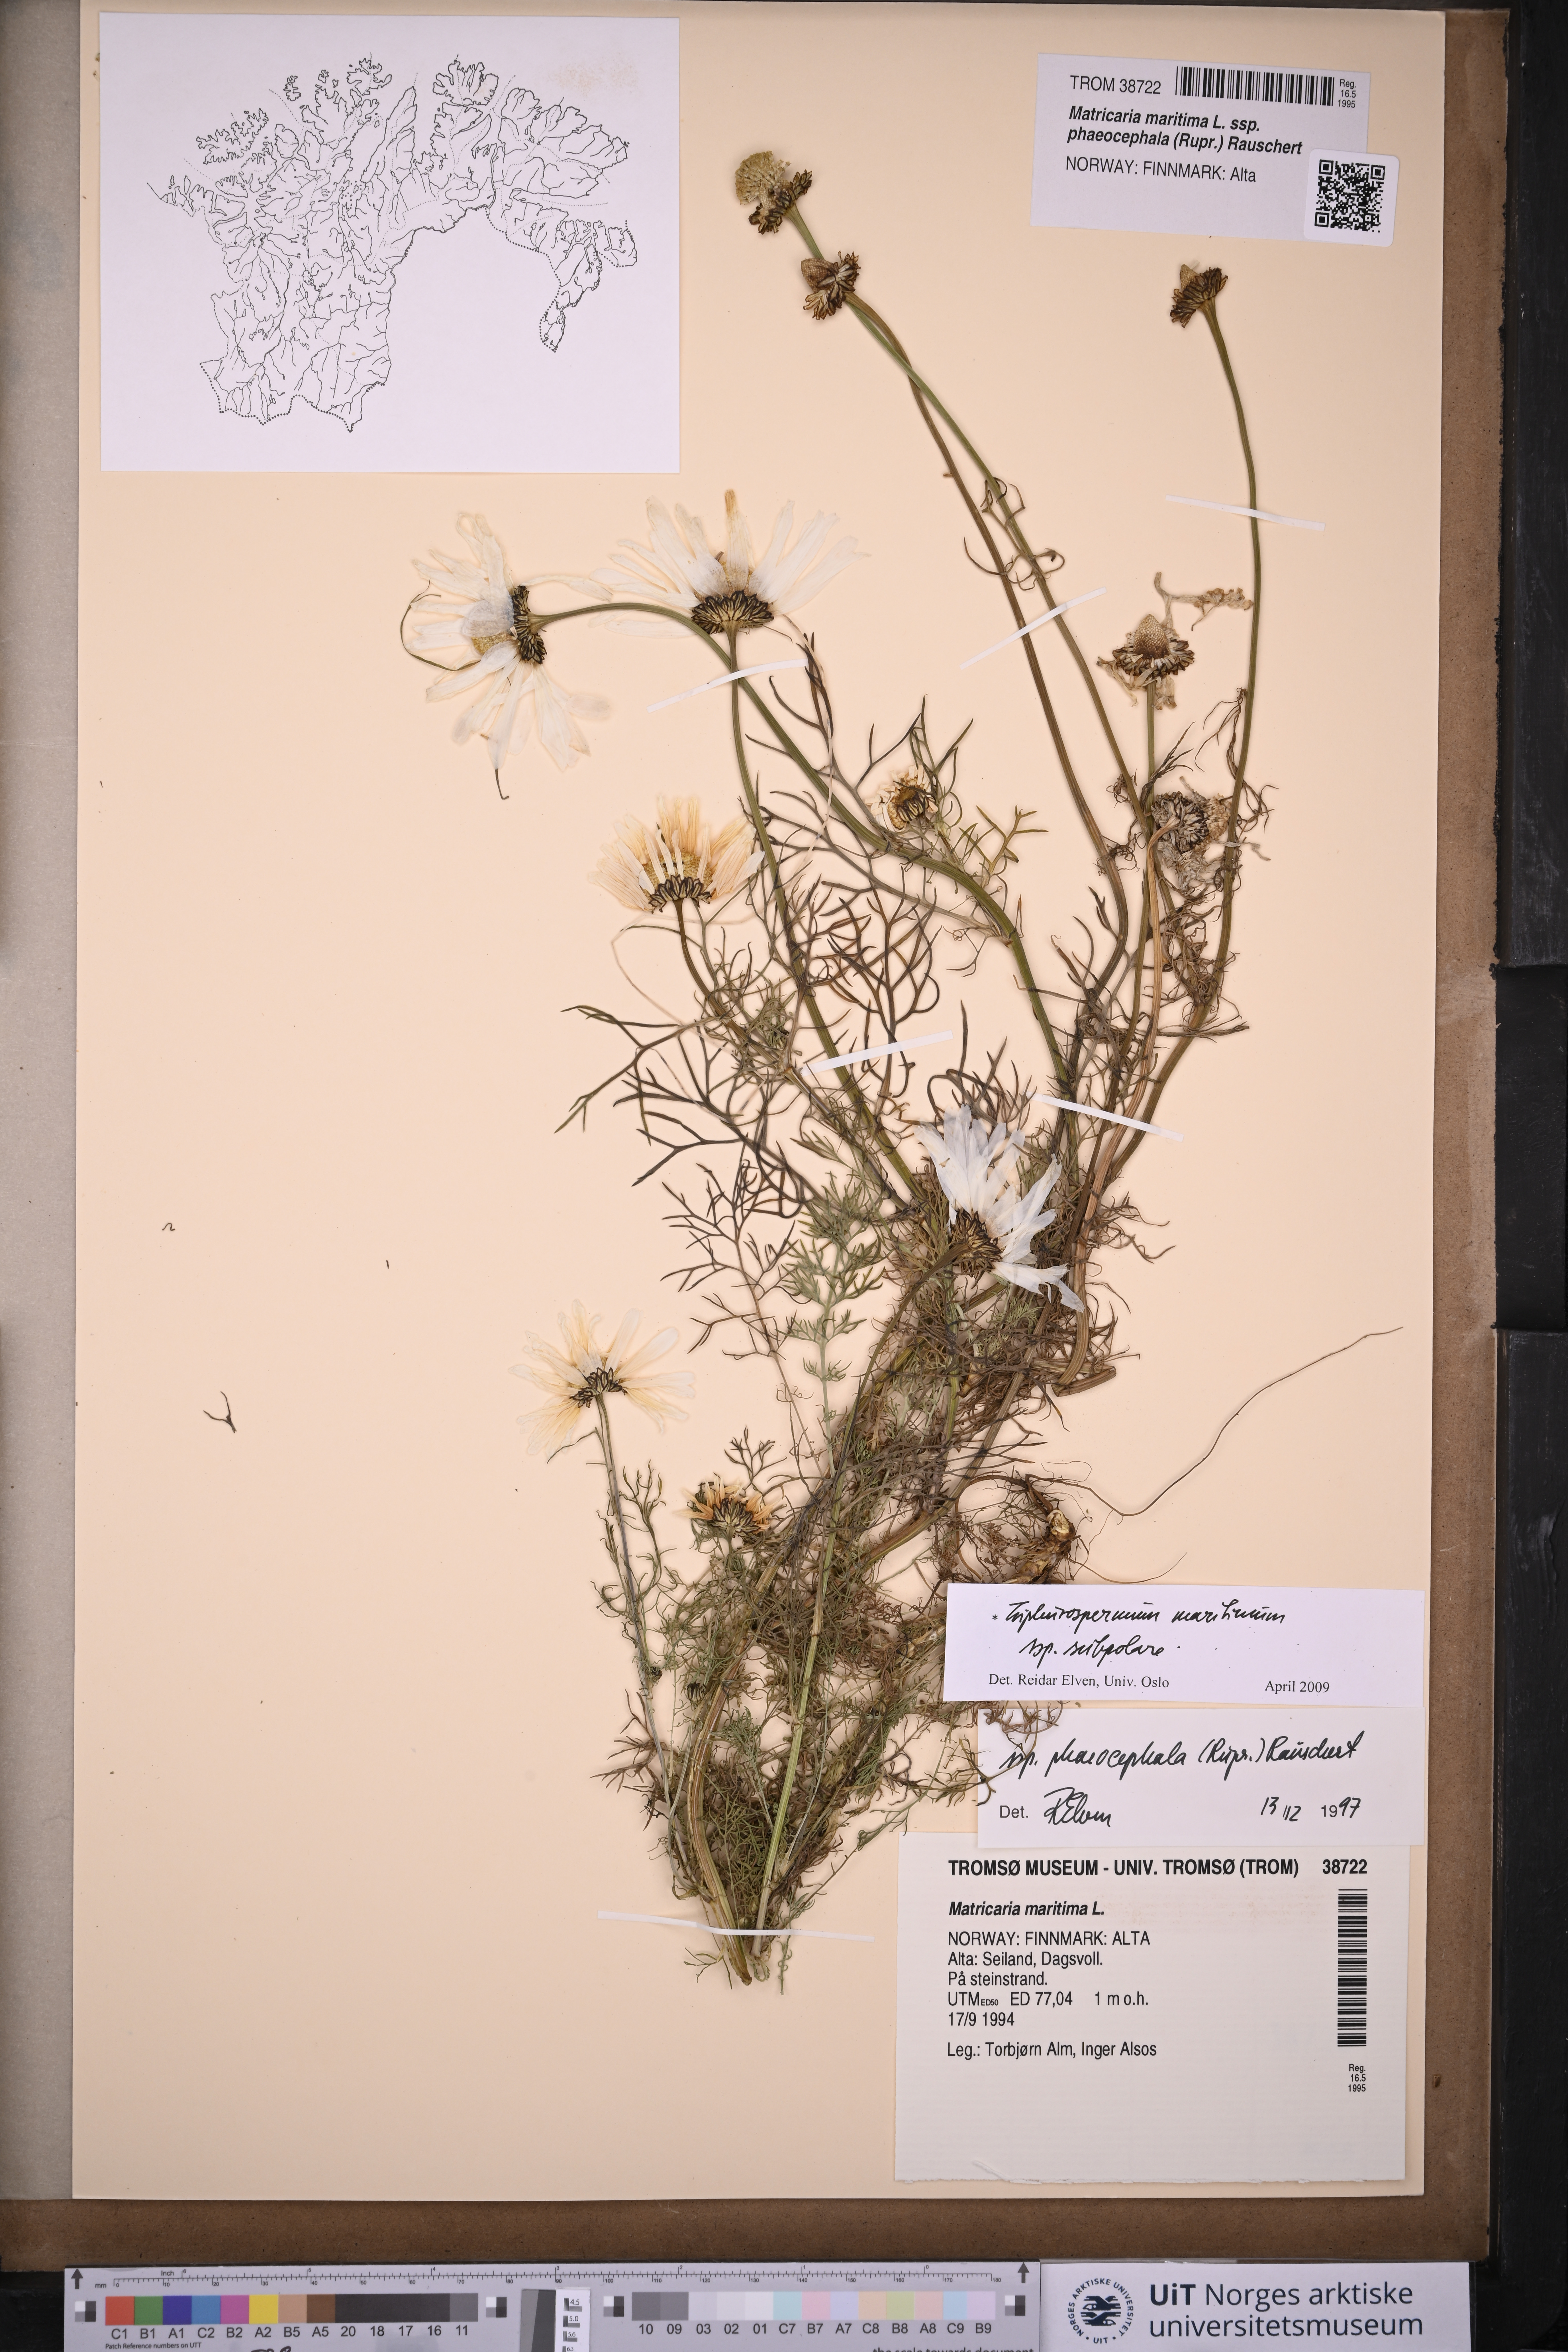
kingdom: Plantae
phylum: Tracheophyta
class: Magnoliopsida
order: Asterales
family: Asteraceae
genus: Tripleurospermum
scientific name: Tripleurospermum subpolare
